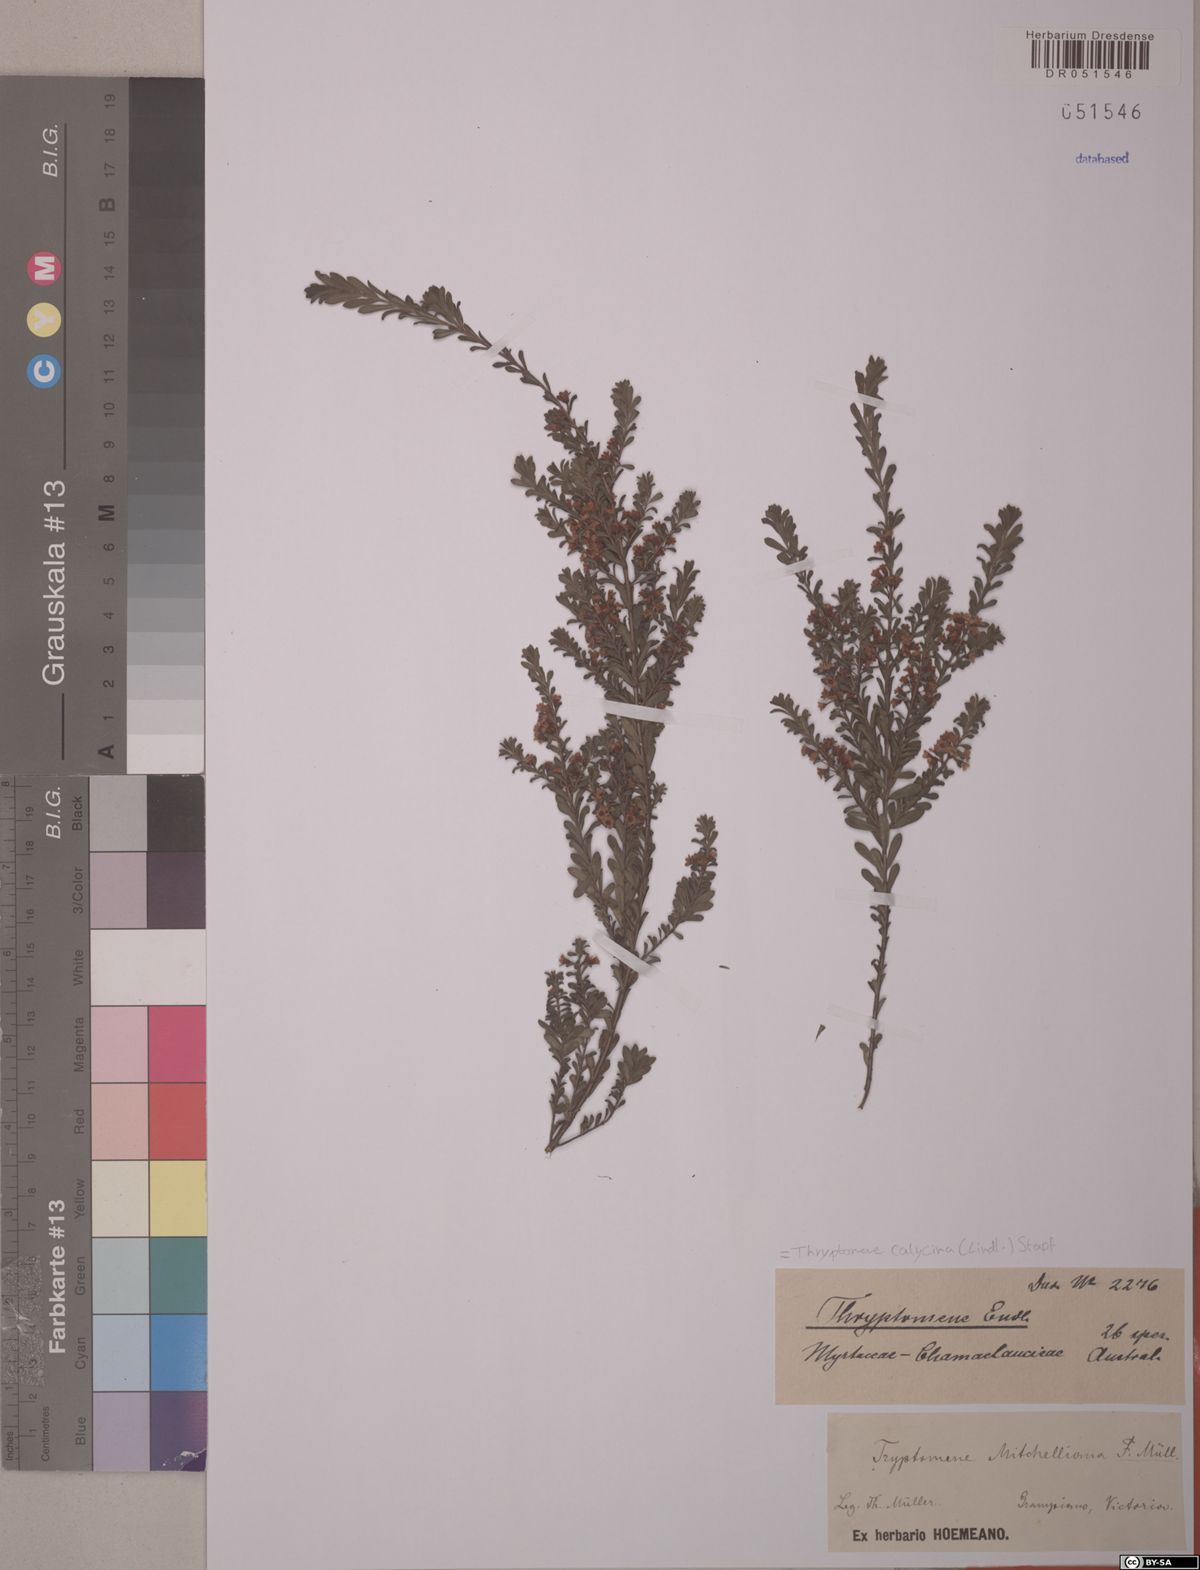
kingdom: Plantae
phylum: Tracheophyta
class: Magnoliopsida
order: Myrtales
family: Myrtaceae
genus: Thryptomene
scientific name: Thryptomene calycina
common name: Grampians thryptomene
